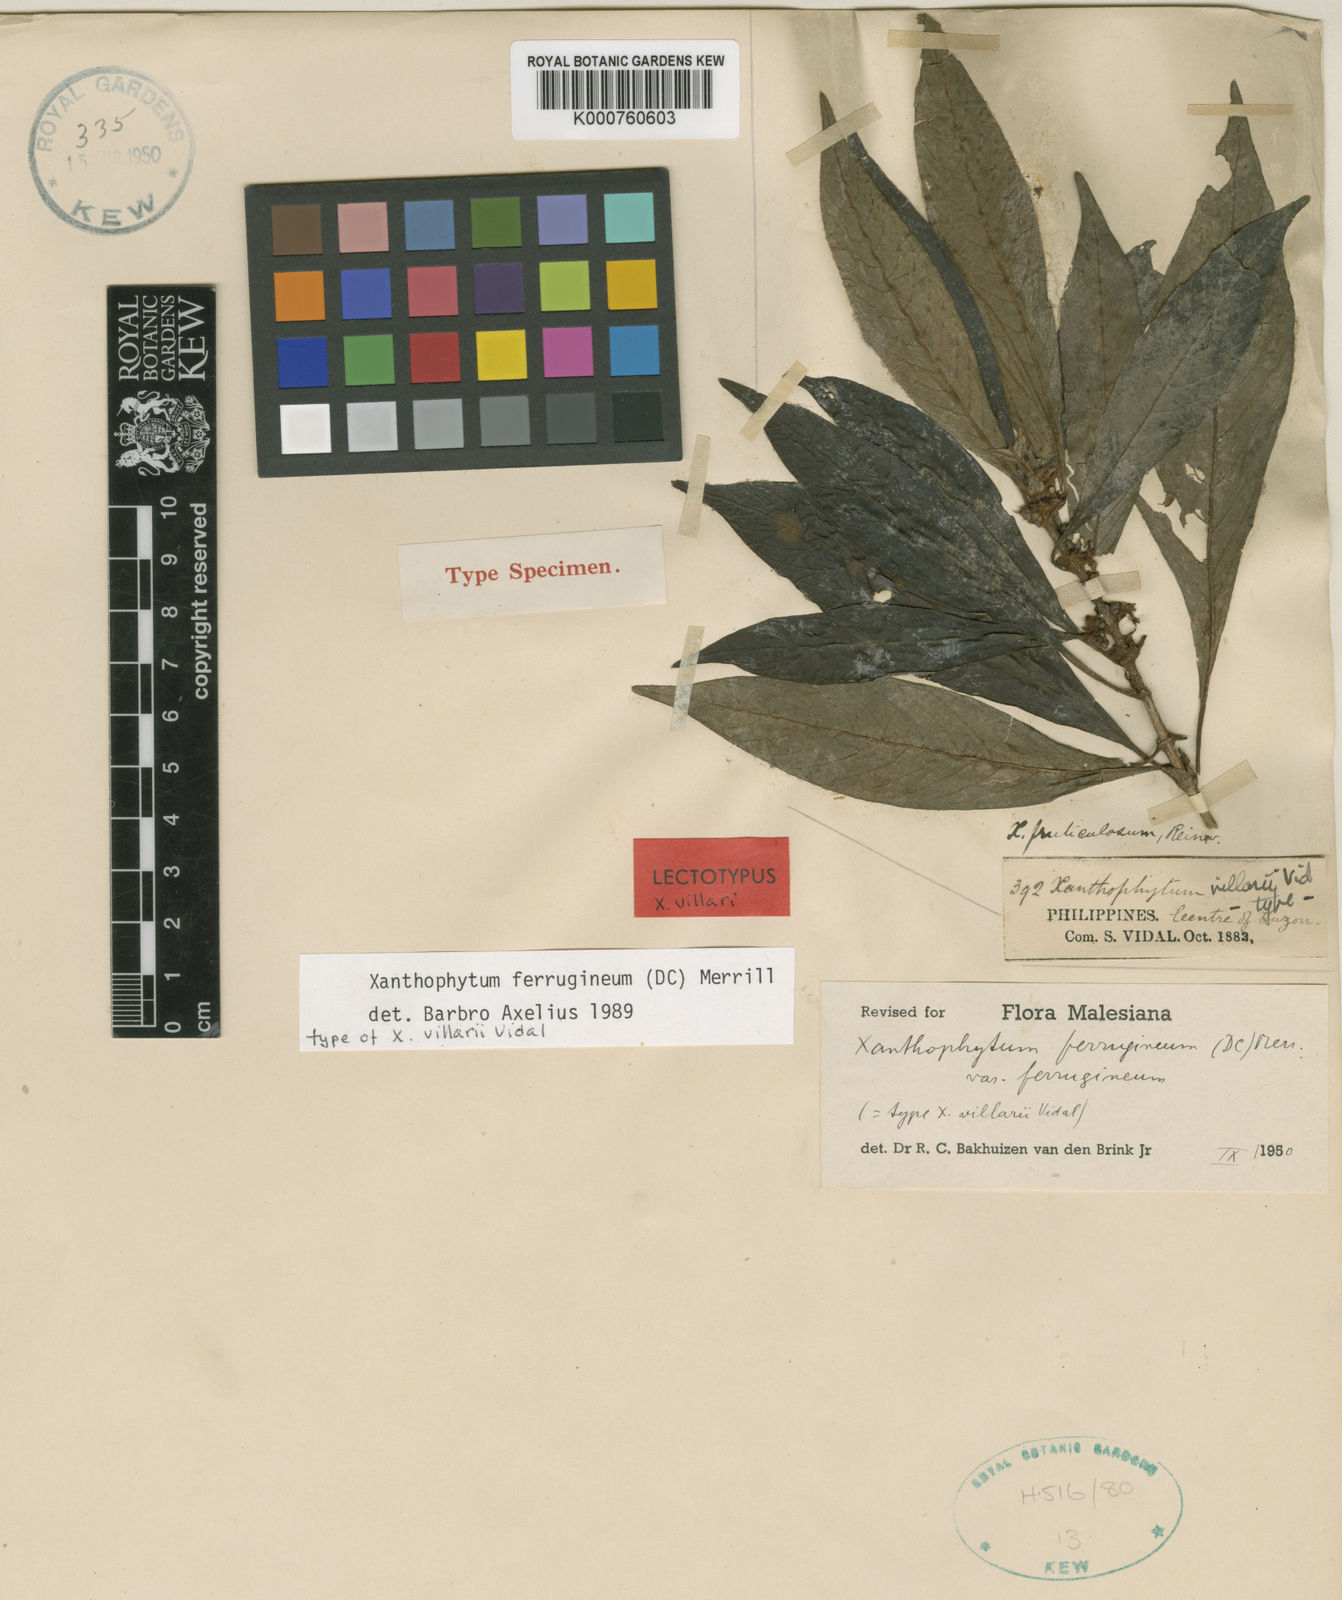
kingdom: Plantae
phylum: Tracheophyta
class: Magnoliopsida
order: Gentianales
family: Rubiaceae
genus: Xanthophytum
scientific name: Xanthophytum ferrugineum
